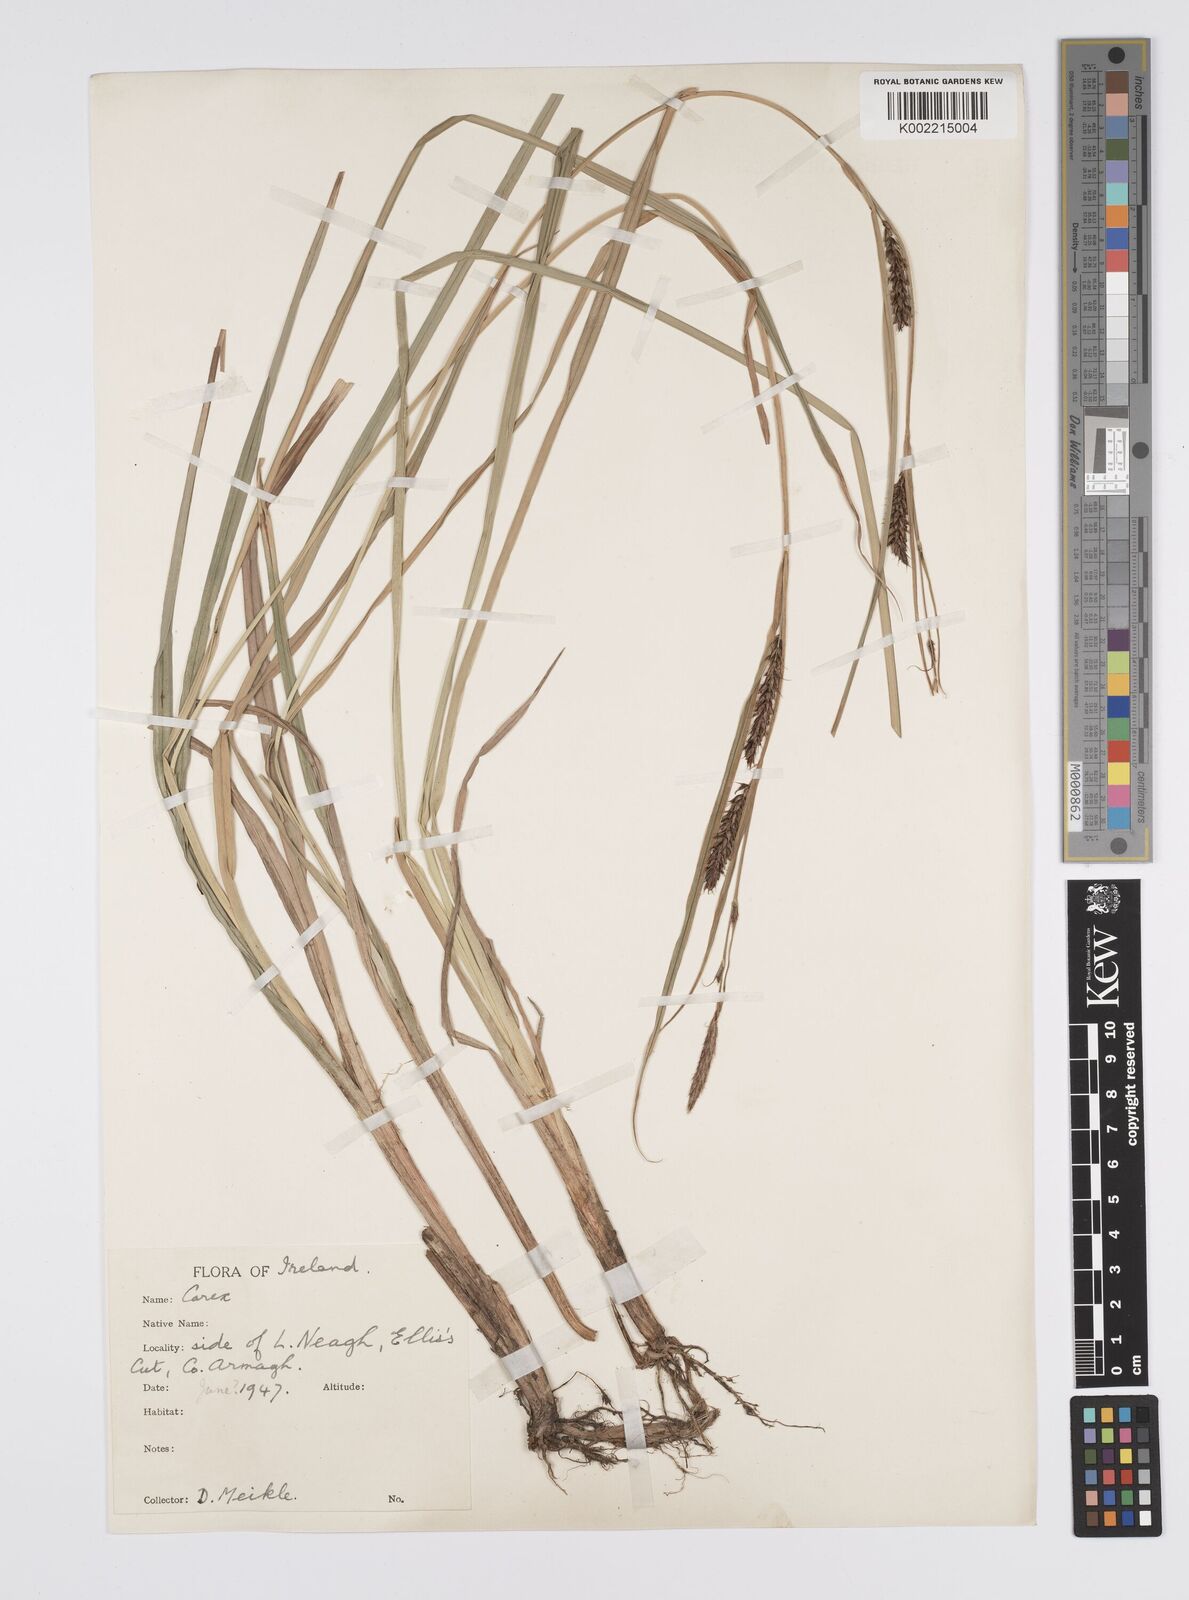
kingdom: Plantae
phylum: Tracheophyta
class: Liliopsida
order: Poales
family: Cyperaceae
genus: Carex
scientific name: Carex riparia
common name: Greater pond-sedge
